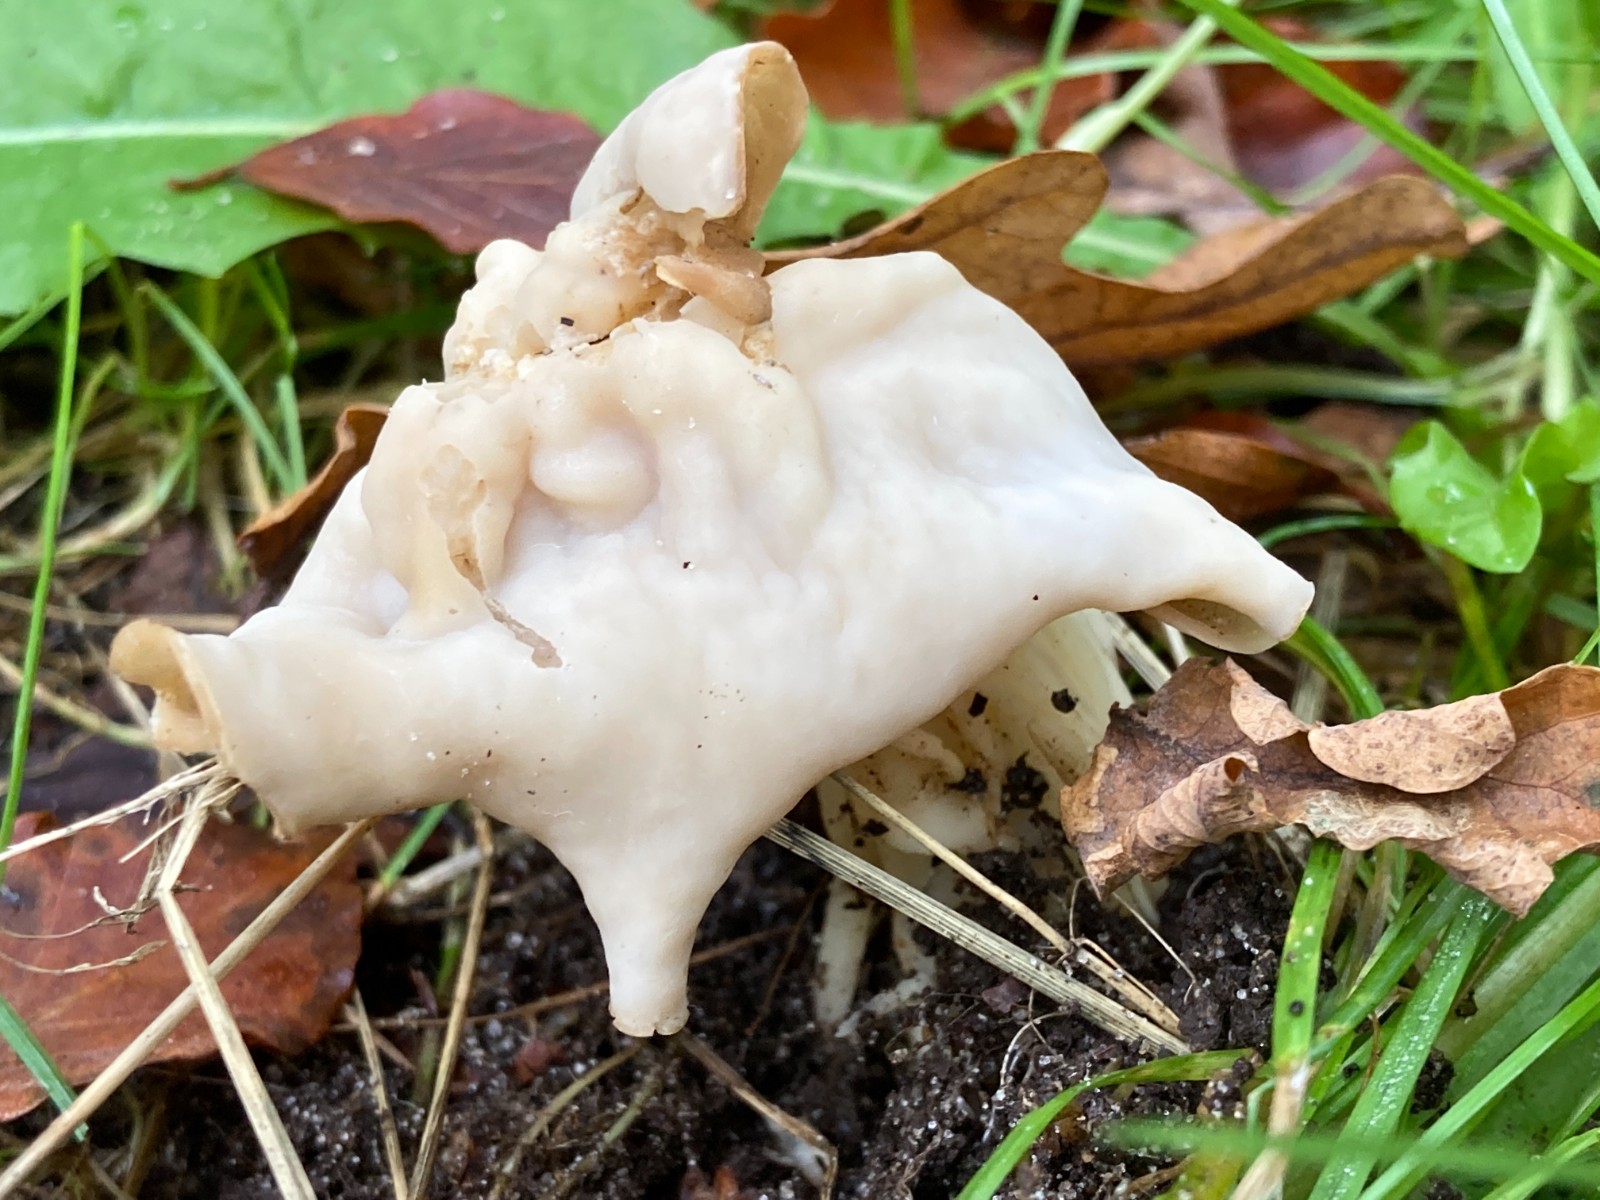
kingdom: Fungi
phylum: Ascomycota
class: Pezizomycetes
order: Pezizales
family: Helvellaceae
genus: Helvella
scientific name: Helvella crispa
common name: kruset foldhat
